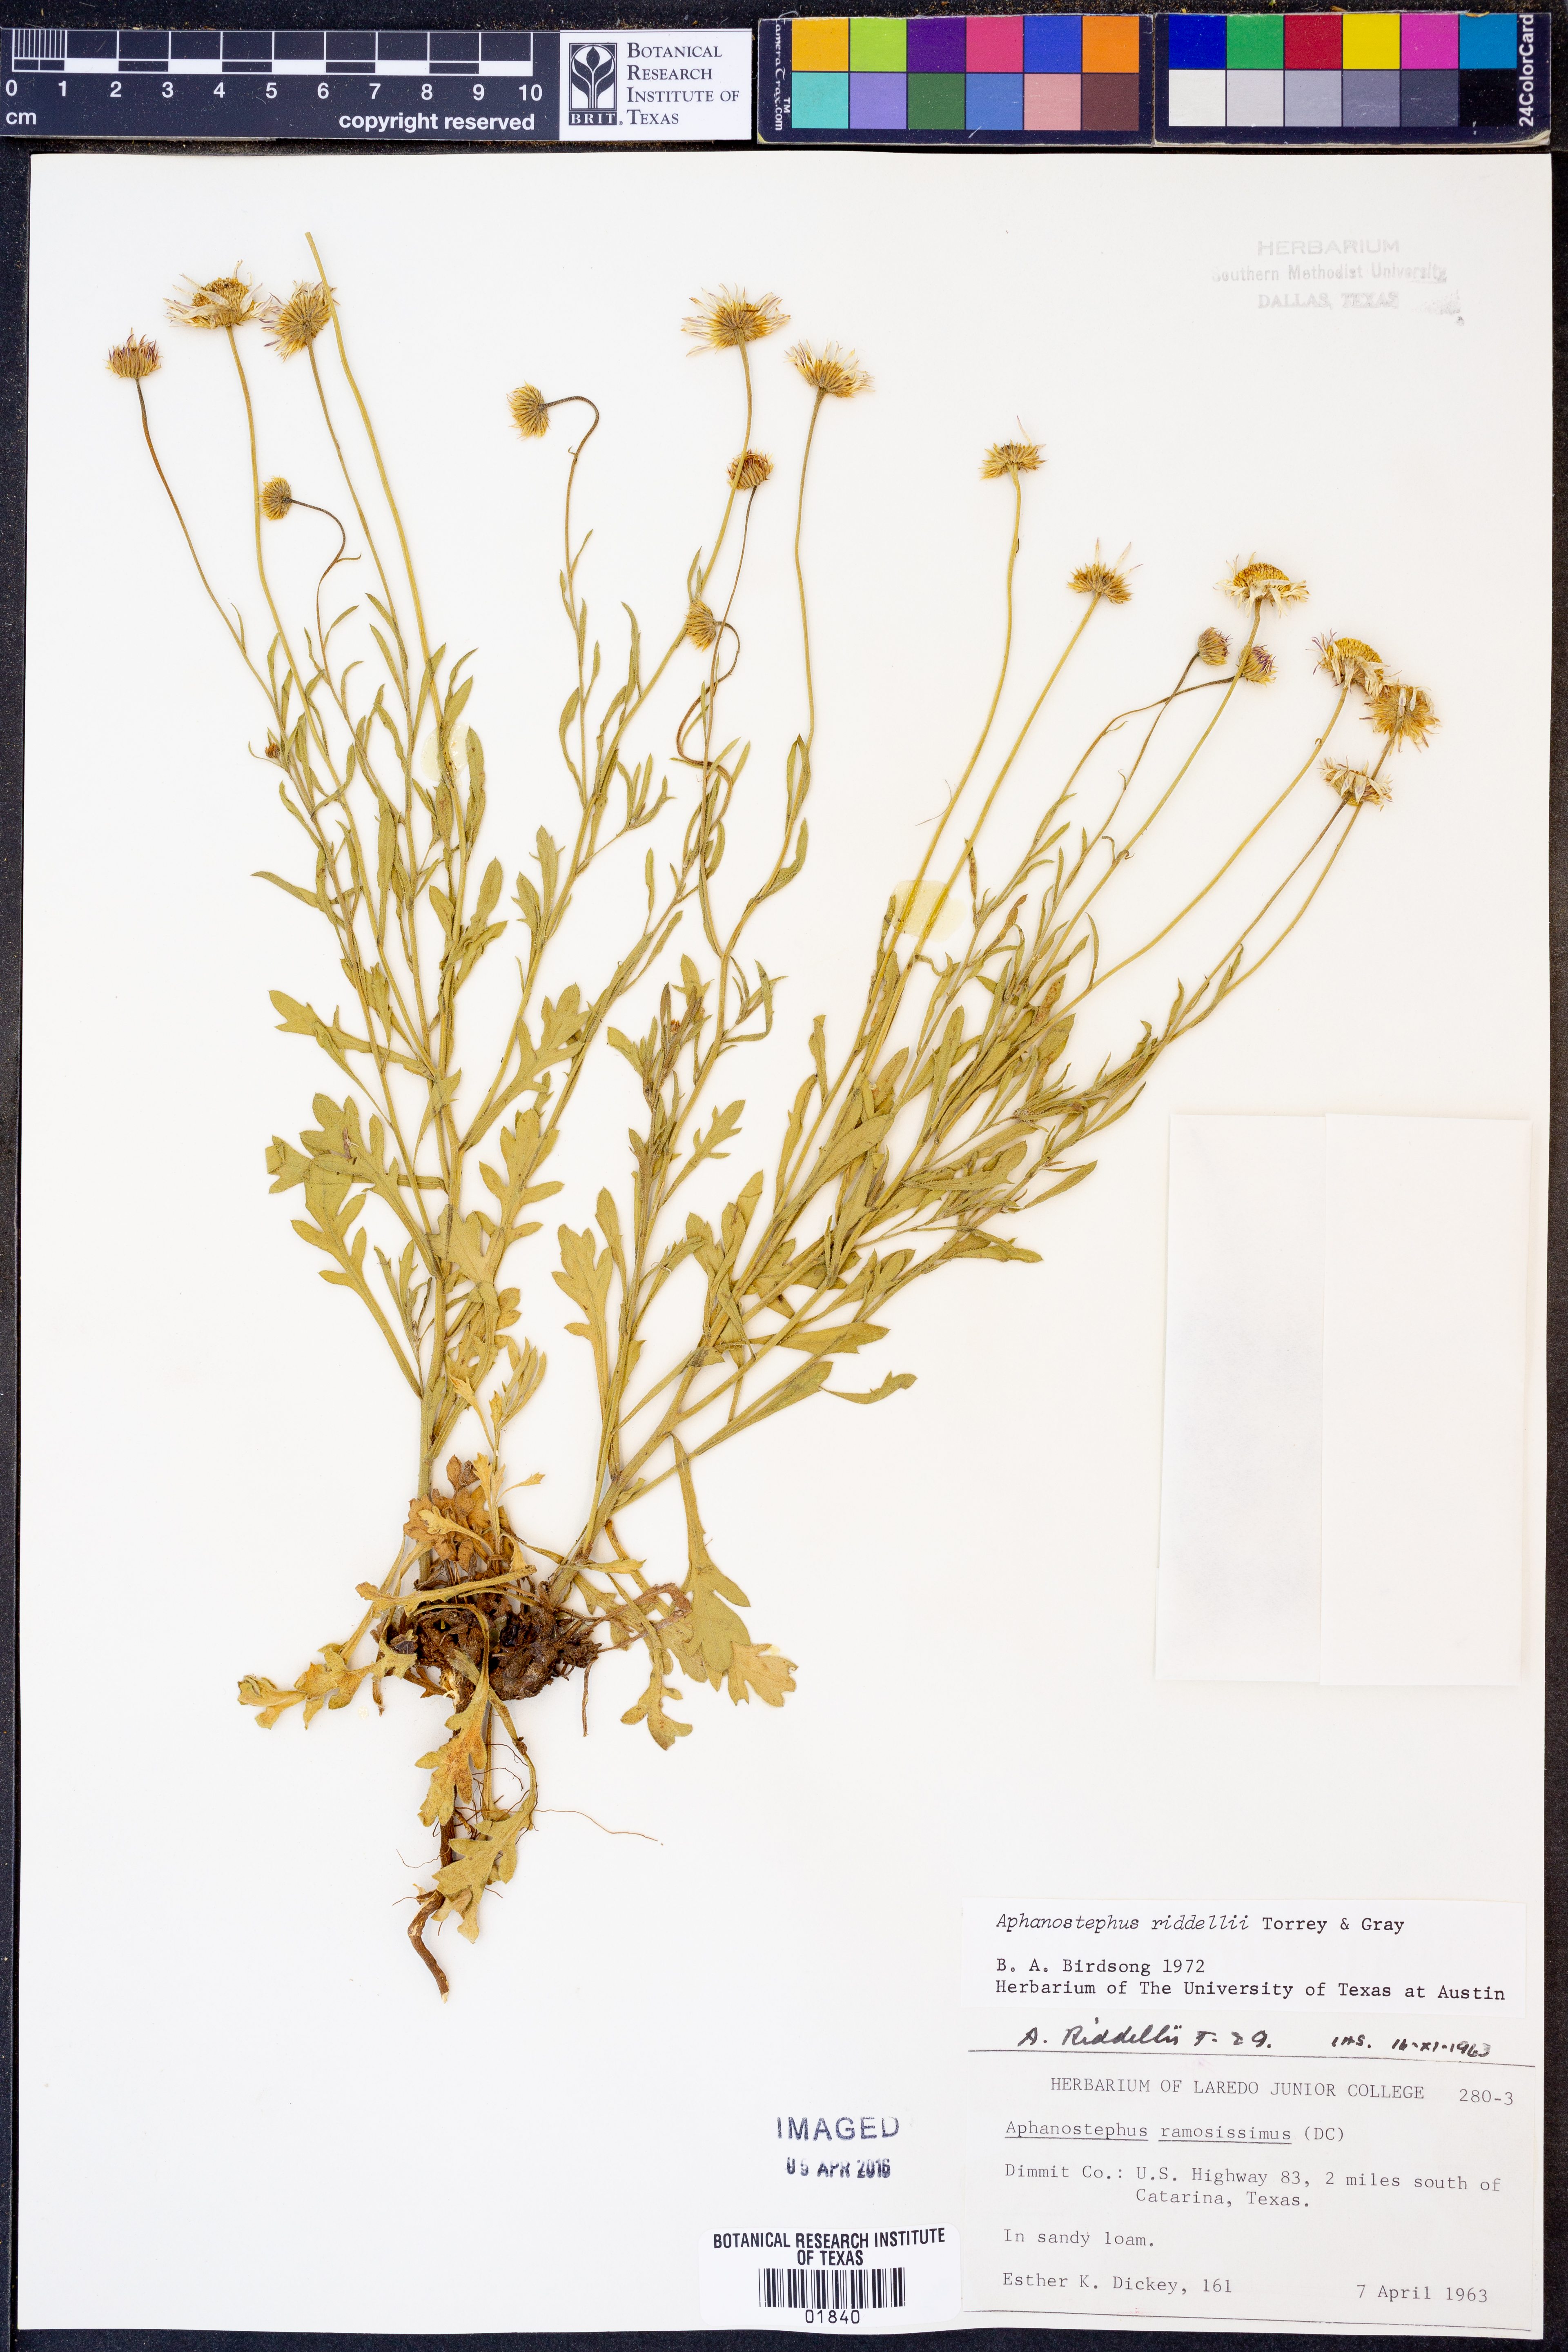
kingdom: Plantae
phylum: Tracheophyta
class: Magnoliopsida
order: Asterales
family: Asteraceae
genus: Aphanostephus
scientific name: Aphanostephus riddellii
